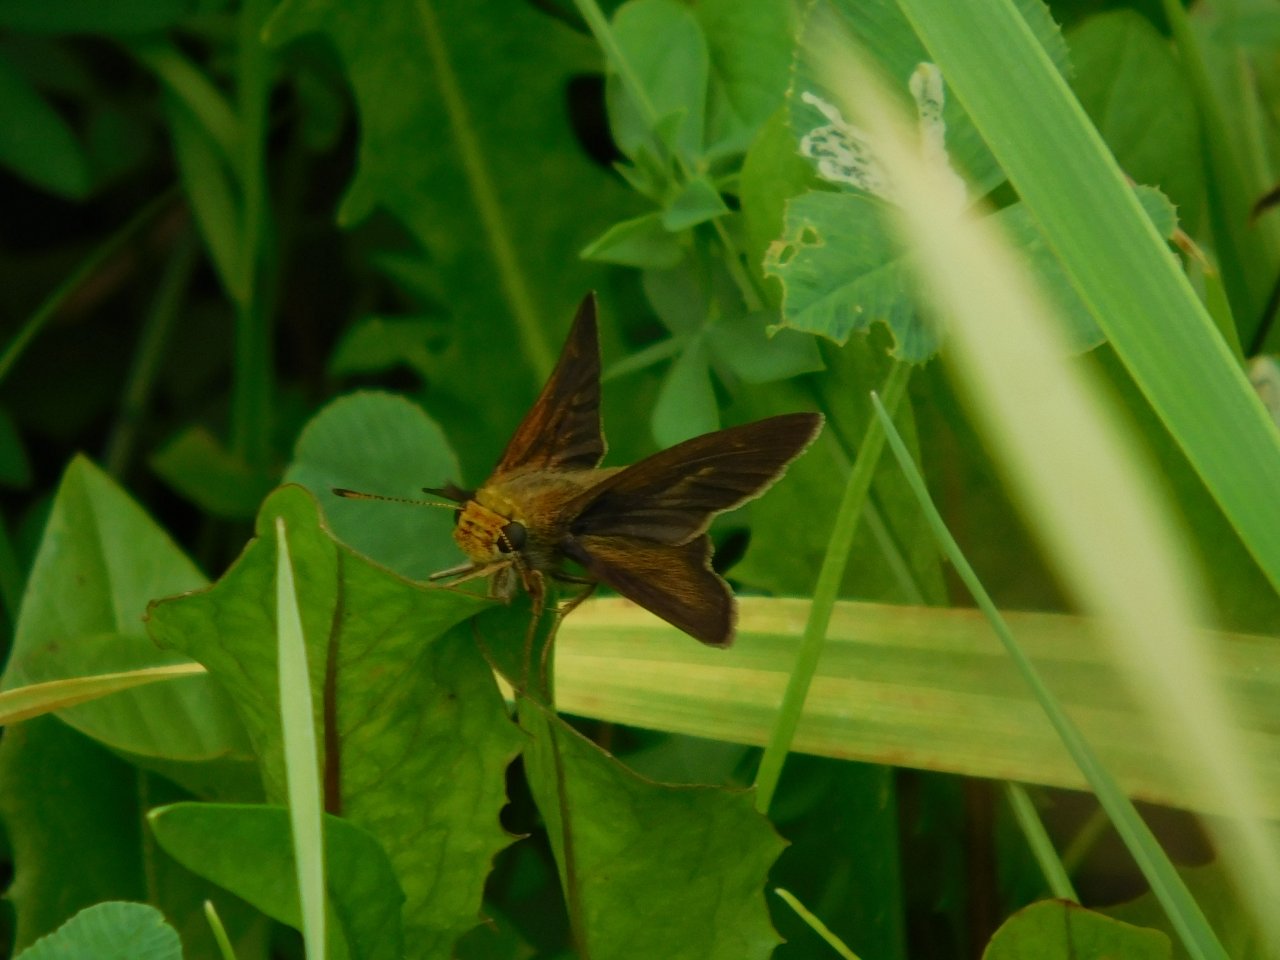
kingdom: Animalia
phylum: Arthropoda
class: Insecta
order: Lepidoptera
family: Hesperiidae
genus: Euphyes
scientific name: Euphyes vestris
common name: Dun Skipper
